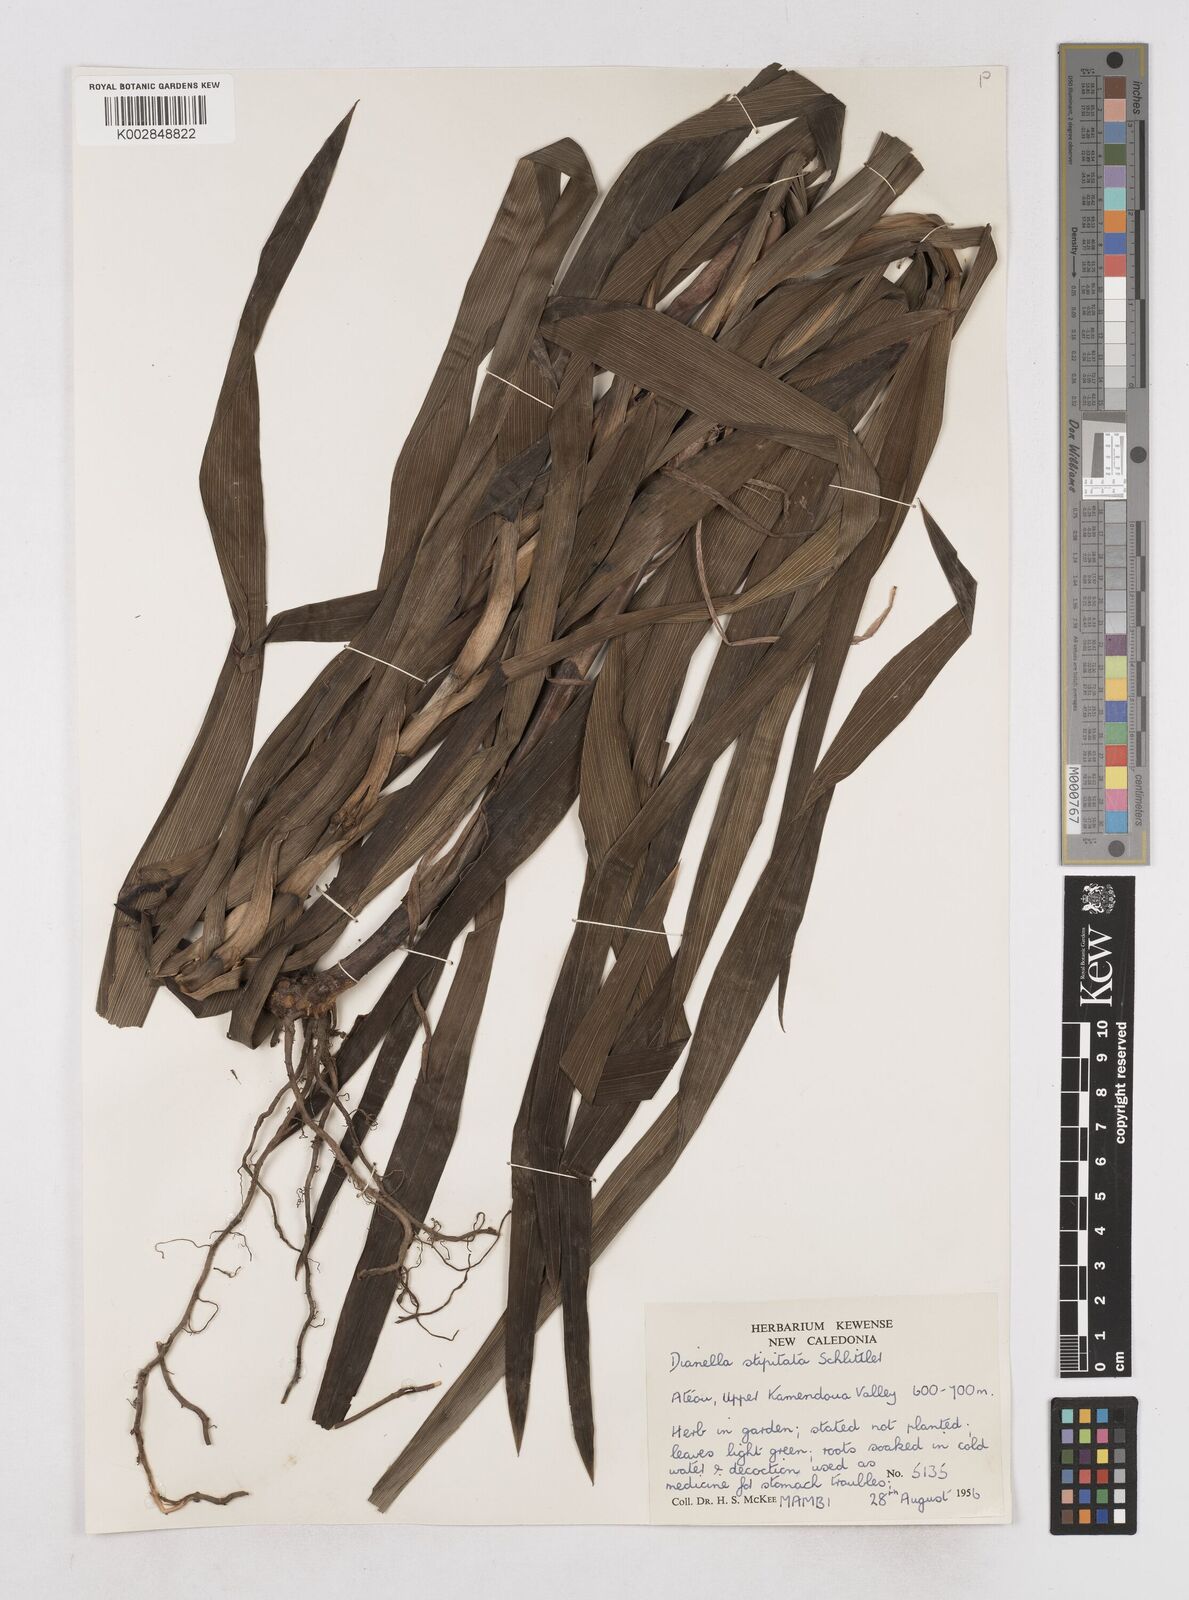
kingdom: Plantae
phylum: Tracheophyta
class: Liliopsida
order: Asparagales
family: Asphodelaceae
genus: Dianella
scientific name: Dianella stipitata
